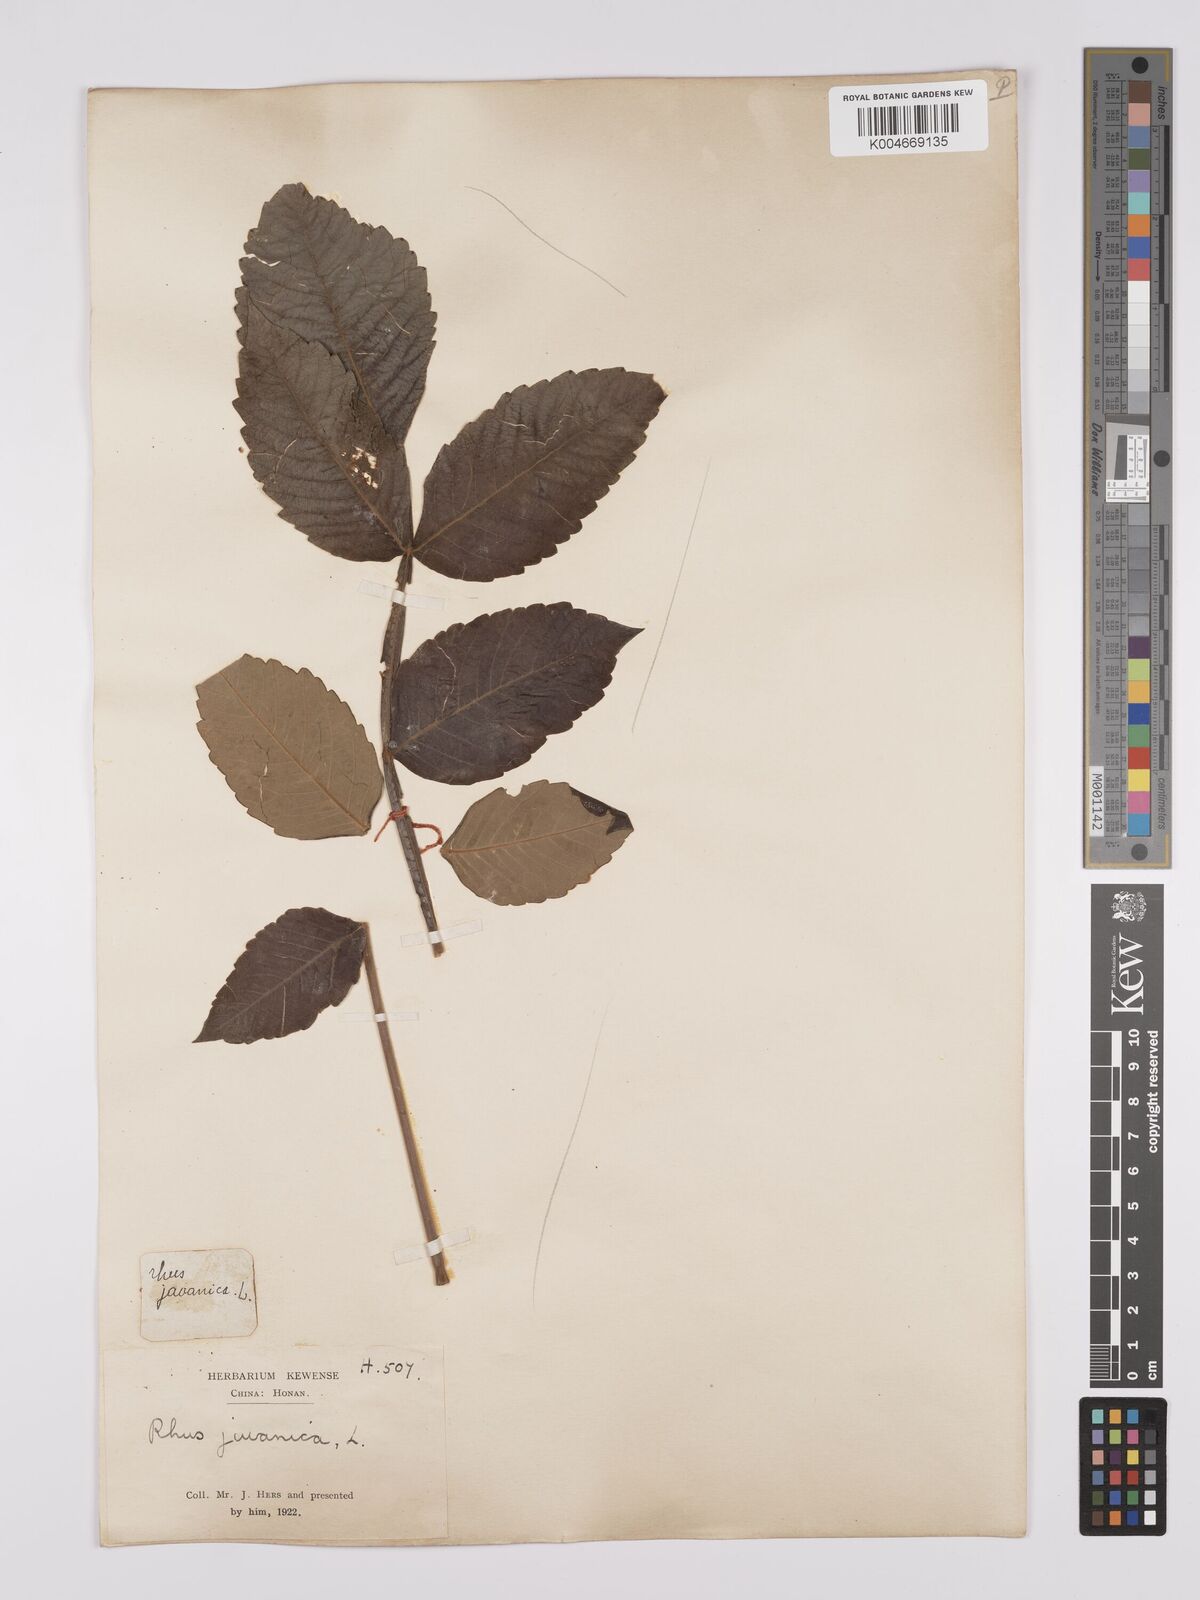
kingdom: Plantae
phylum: Tracheophyta
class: Magnoliopsida
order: Sapindales
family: Anacardiaceae
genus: Rhus
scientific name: Rhus chinensis
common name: Chinese gall
